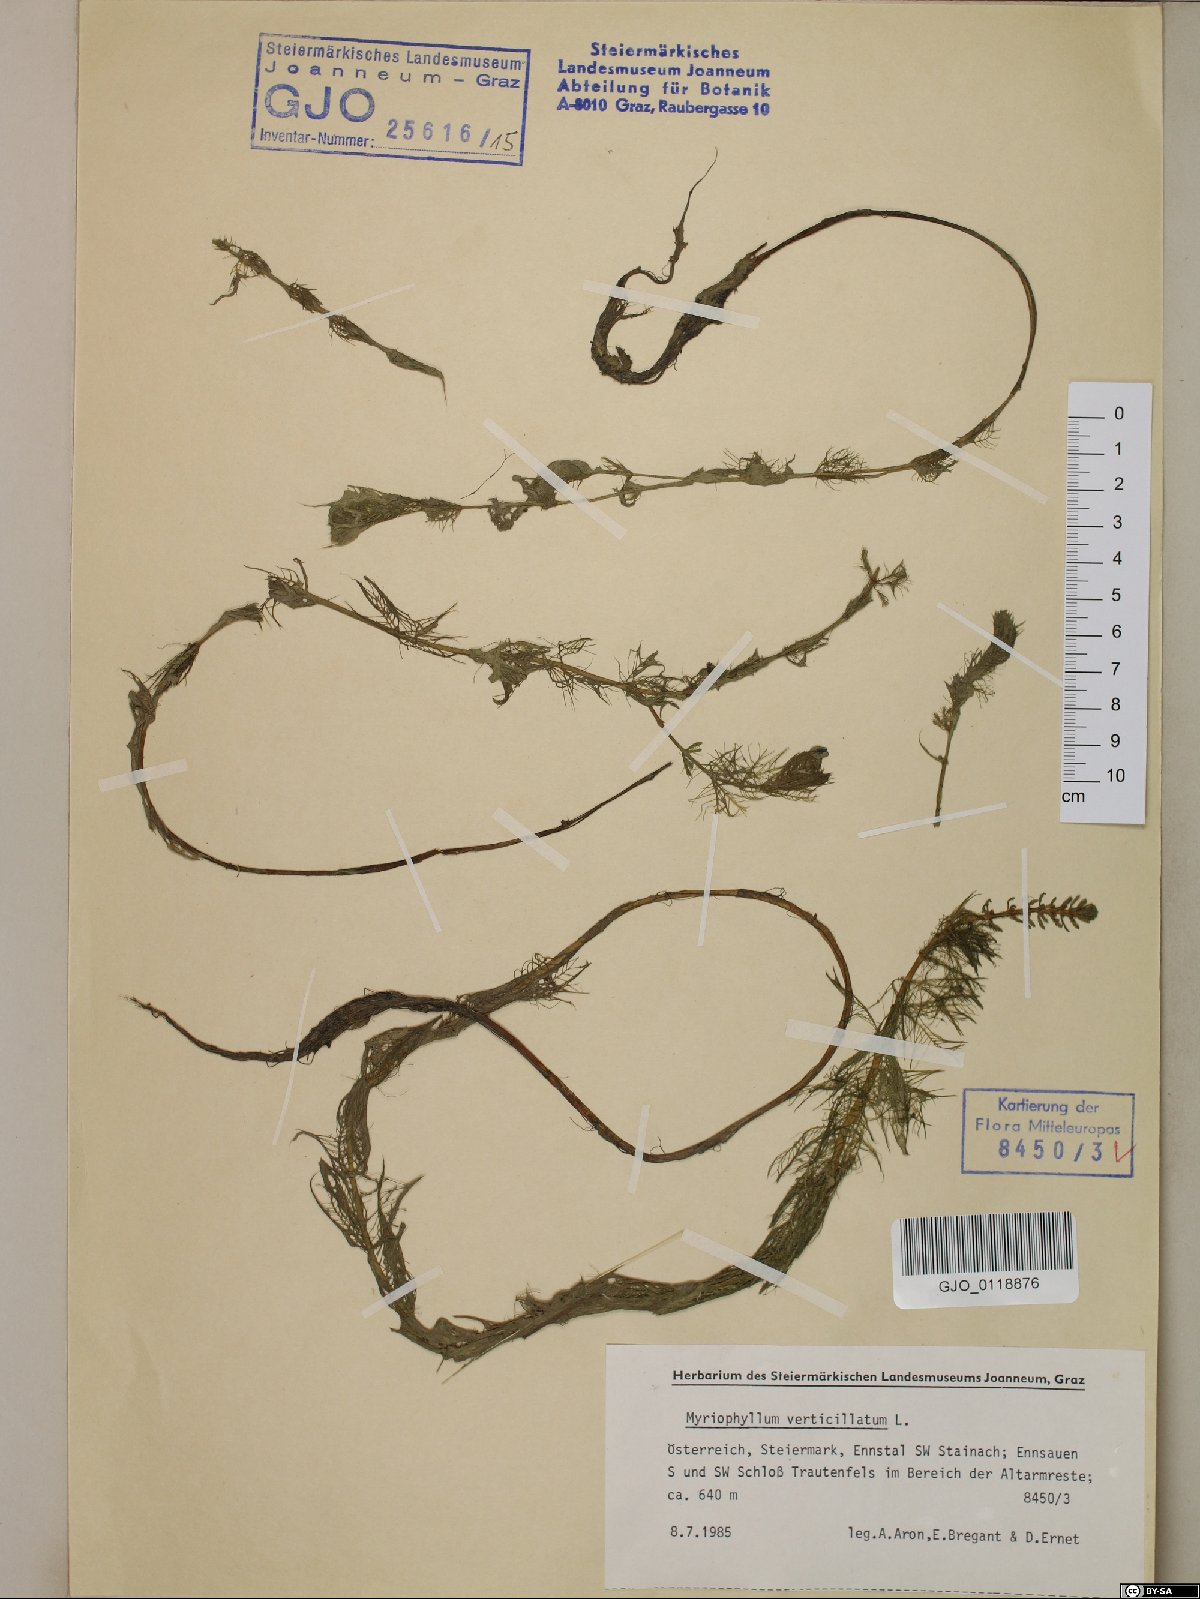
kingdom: Plantae
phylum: Tracheophyta
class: Magnoliopsida
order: Saxifragales
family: Haloragaceae
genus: Myriophyllum
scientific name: Myriophyllum verticillatum
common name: Whorled water-milfoil
